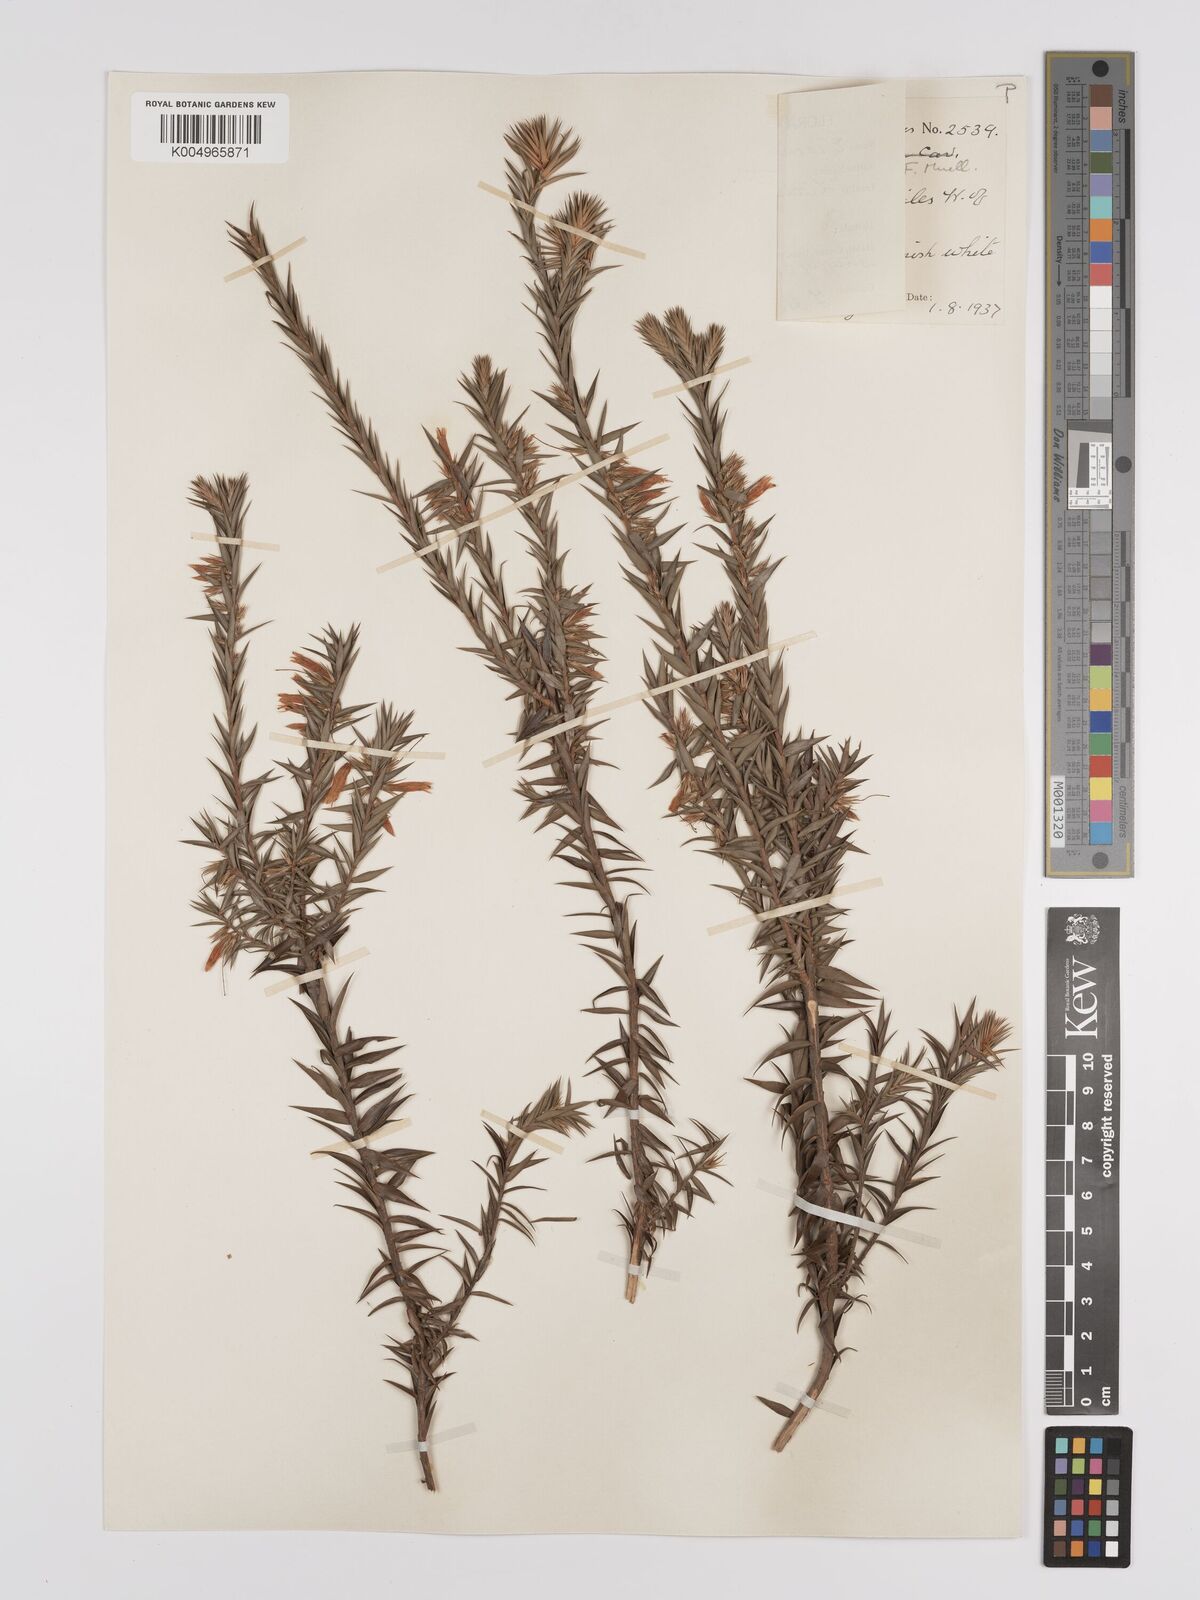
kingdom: Plantae
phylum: Tracheophyta
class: Magnoliopsida
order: Ericales
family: Ericaceae
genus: Epacris
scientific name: Epacris calvertiana
